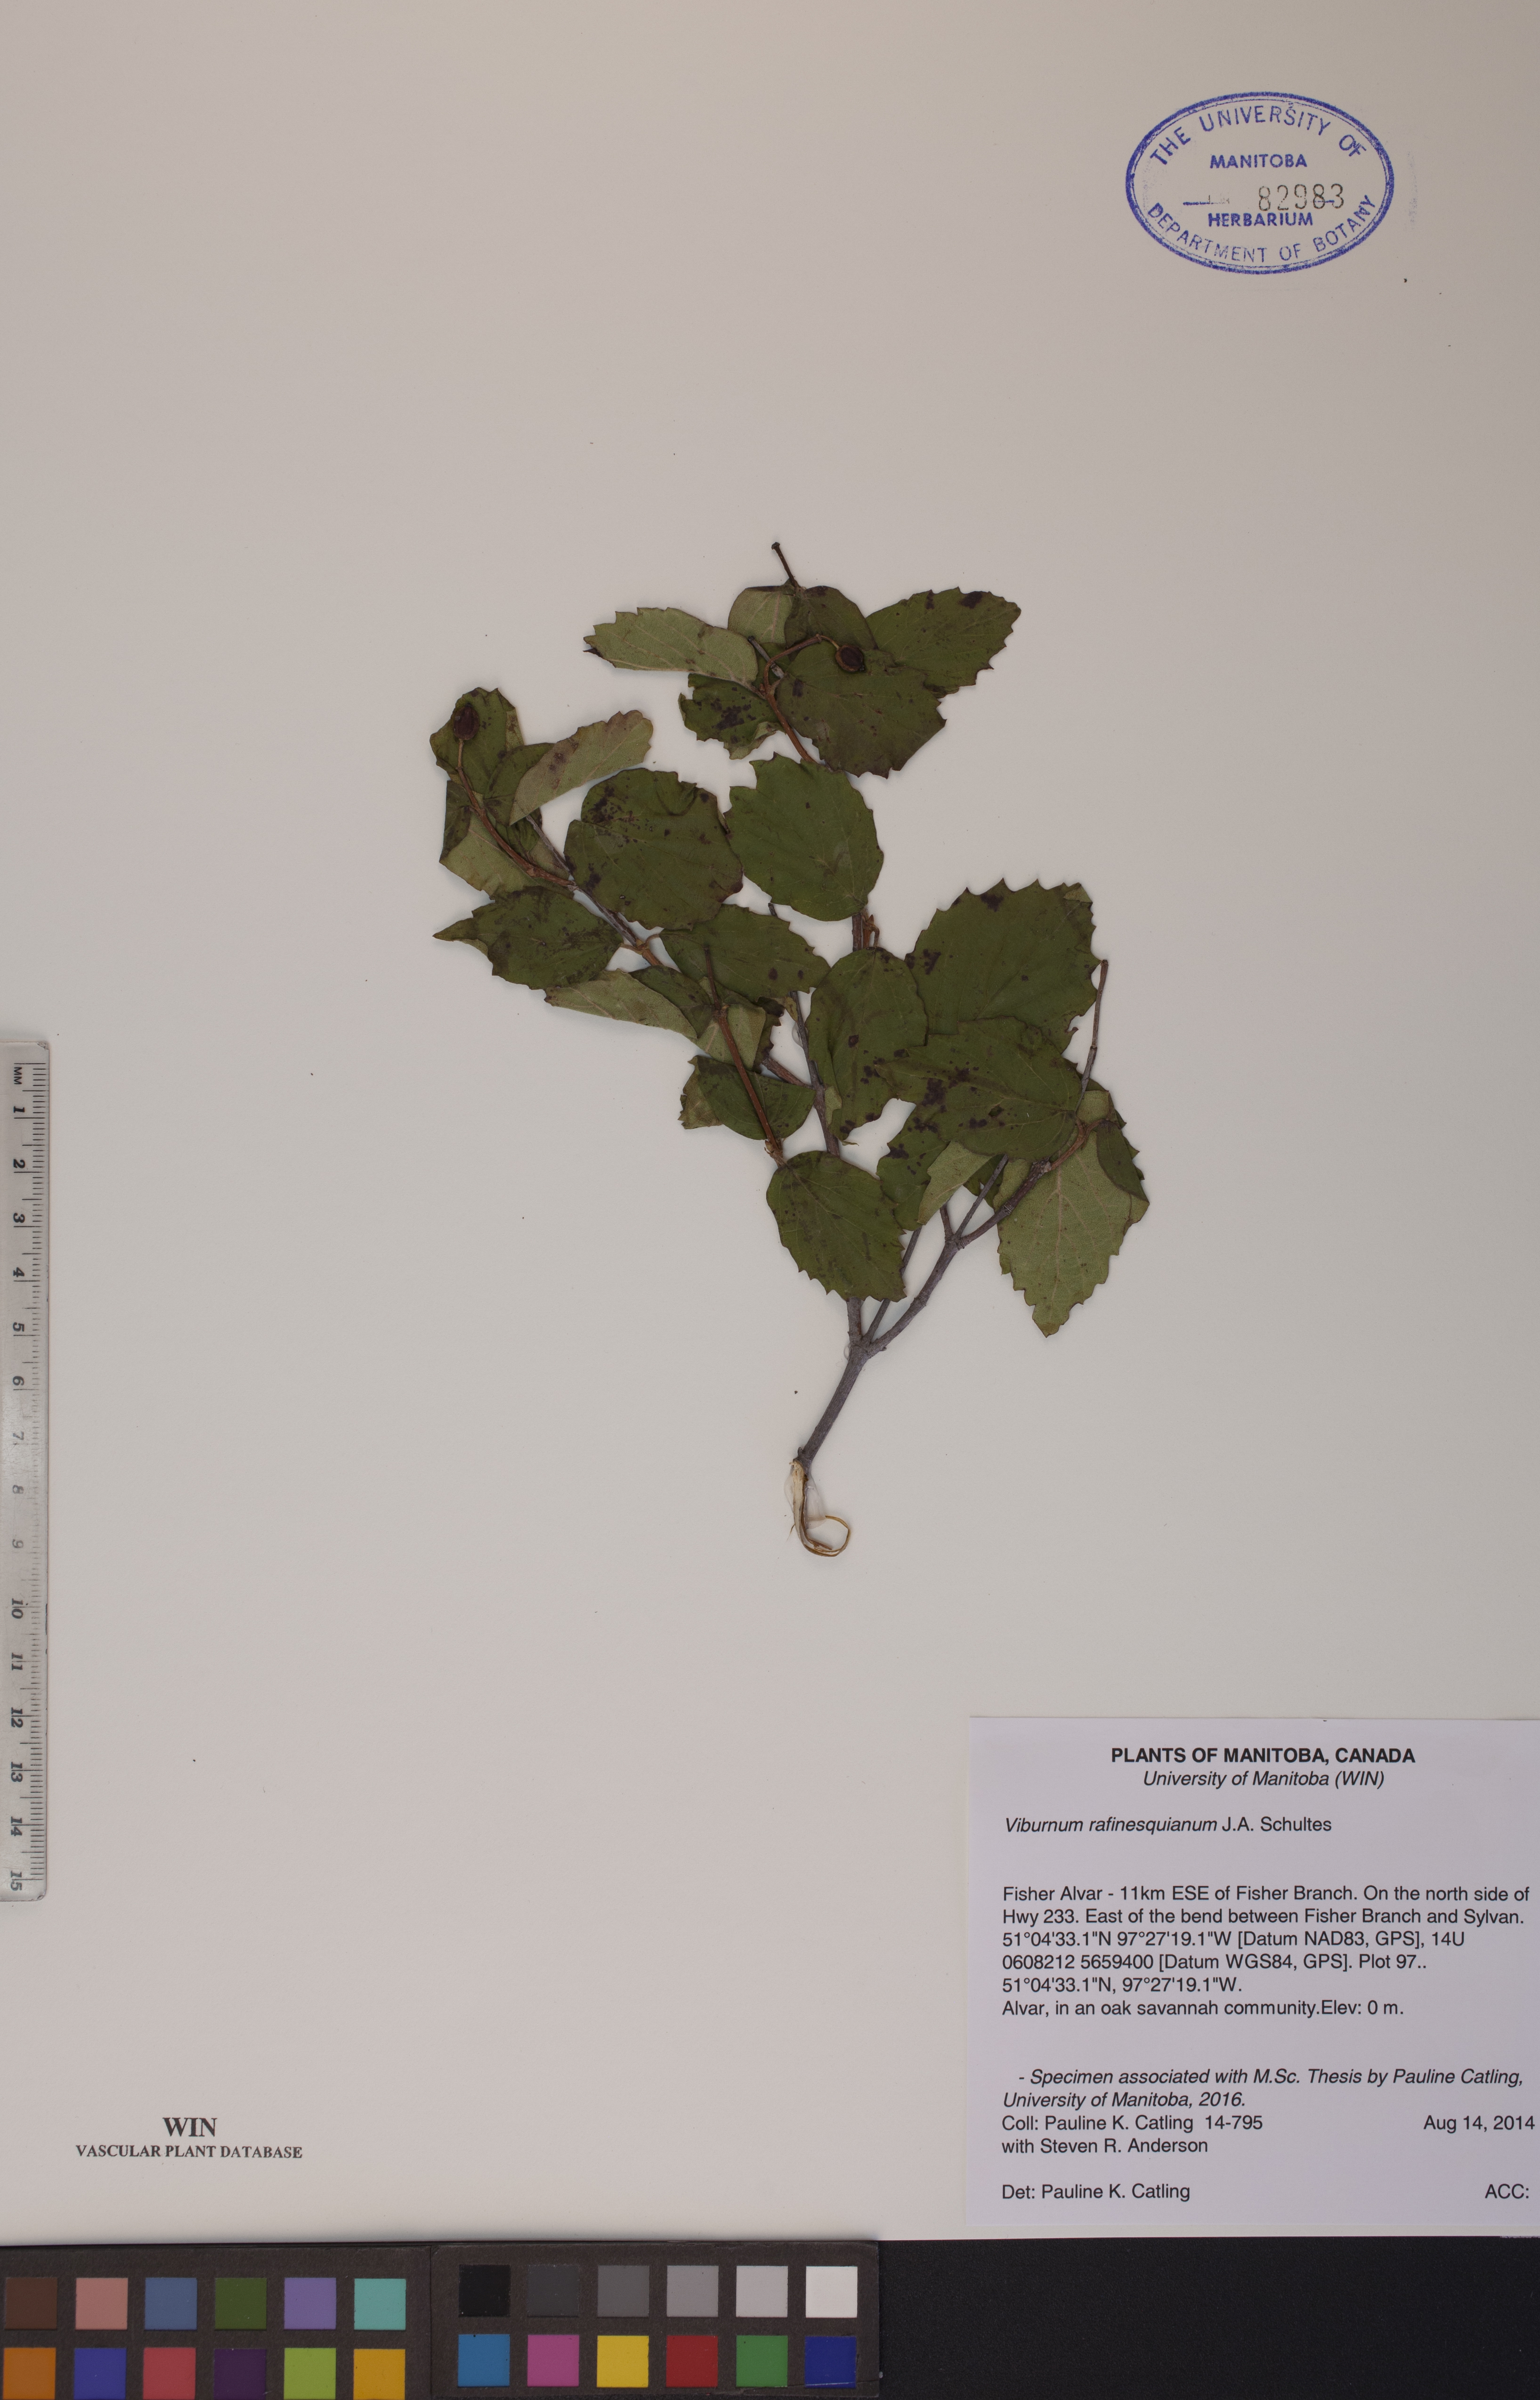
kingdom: Plantae
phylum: Tracheophyta
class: Magnoliopsida
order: Dipsacales
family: Viburnaceae
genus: Viburnum
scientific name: Viburnum rafinesquianum
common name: Downy arrow-wood
